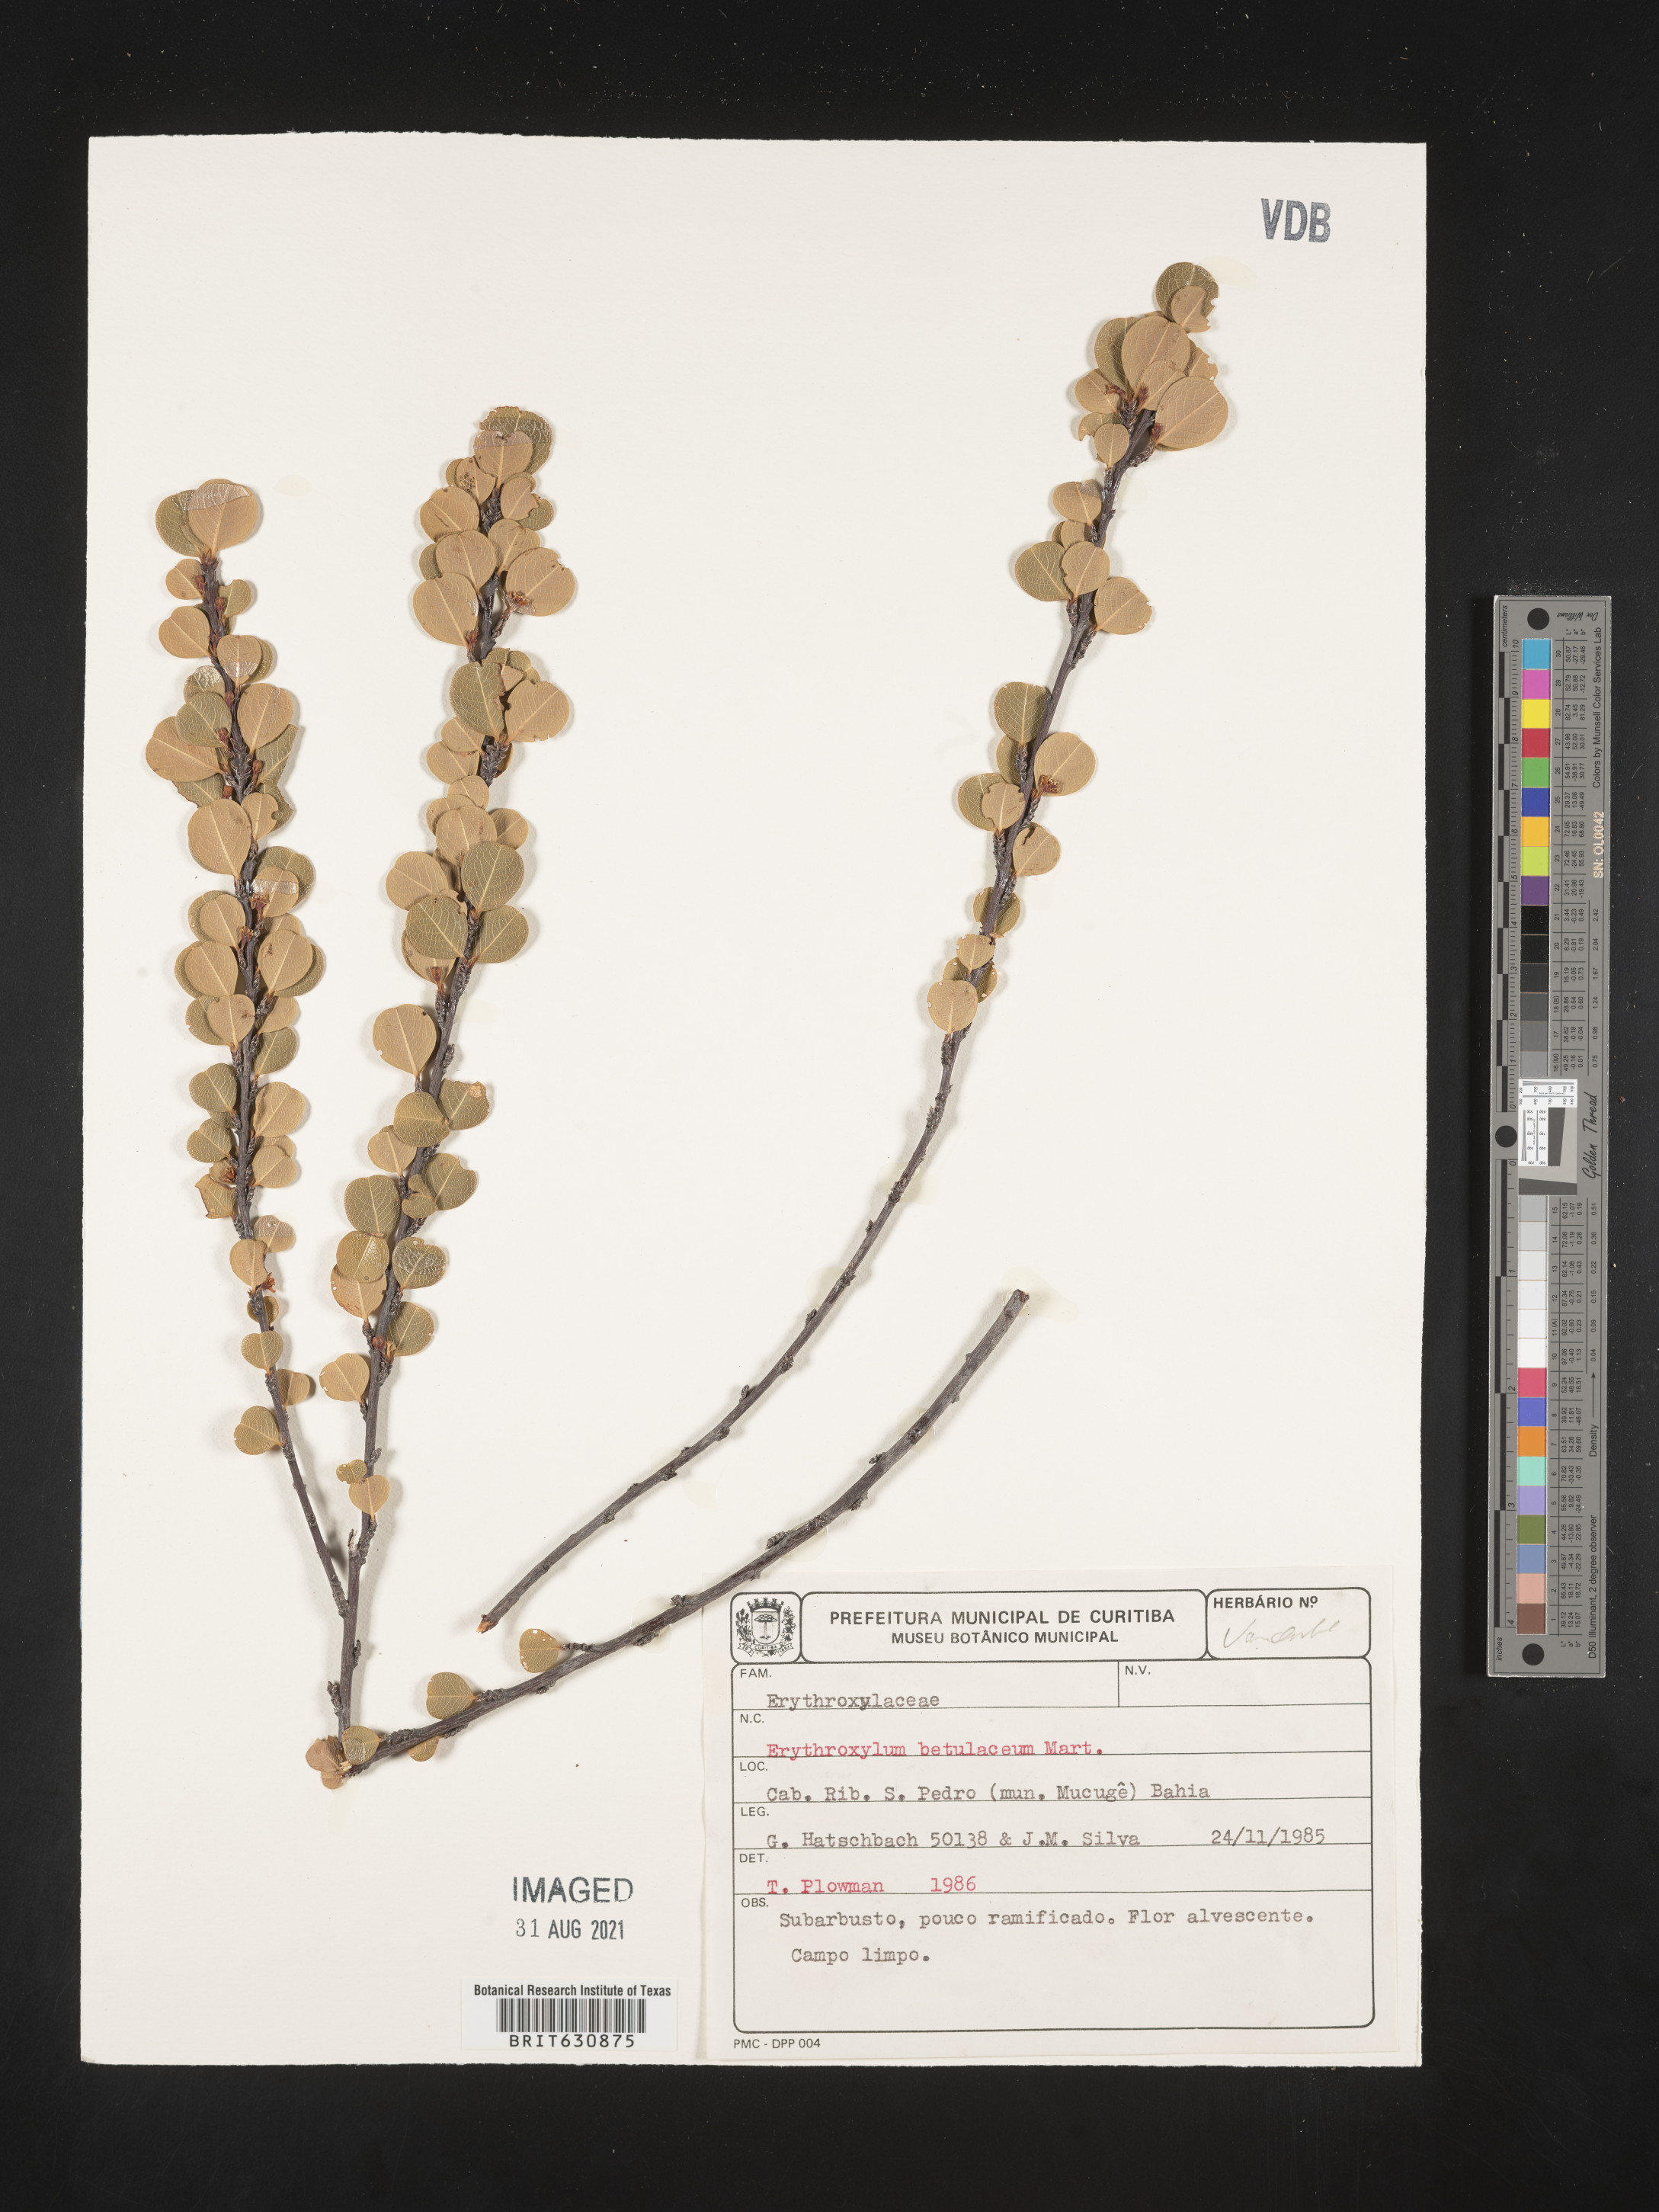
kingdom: Plantae
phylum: Tracheophyta
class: Magnoliopsida
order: Malpighiales
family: Erythroxylaceae
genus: Erythroxylum
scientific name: Erythroxylum
